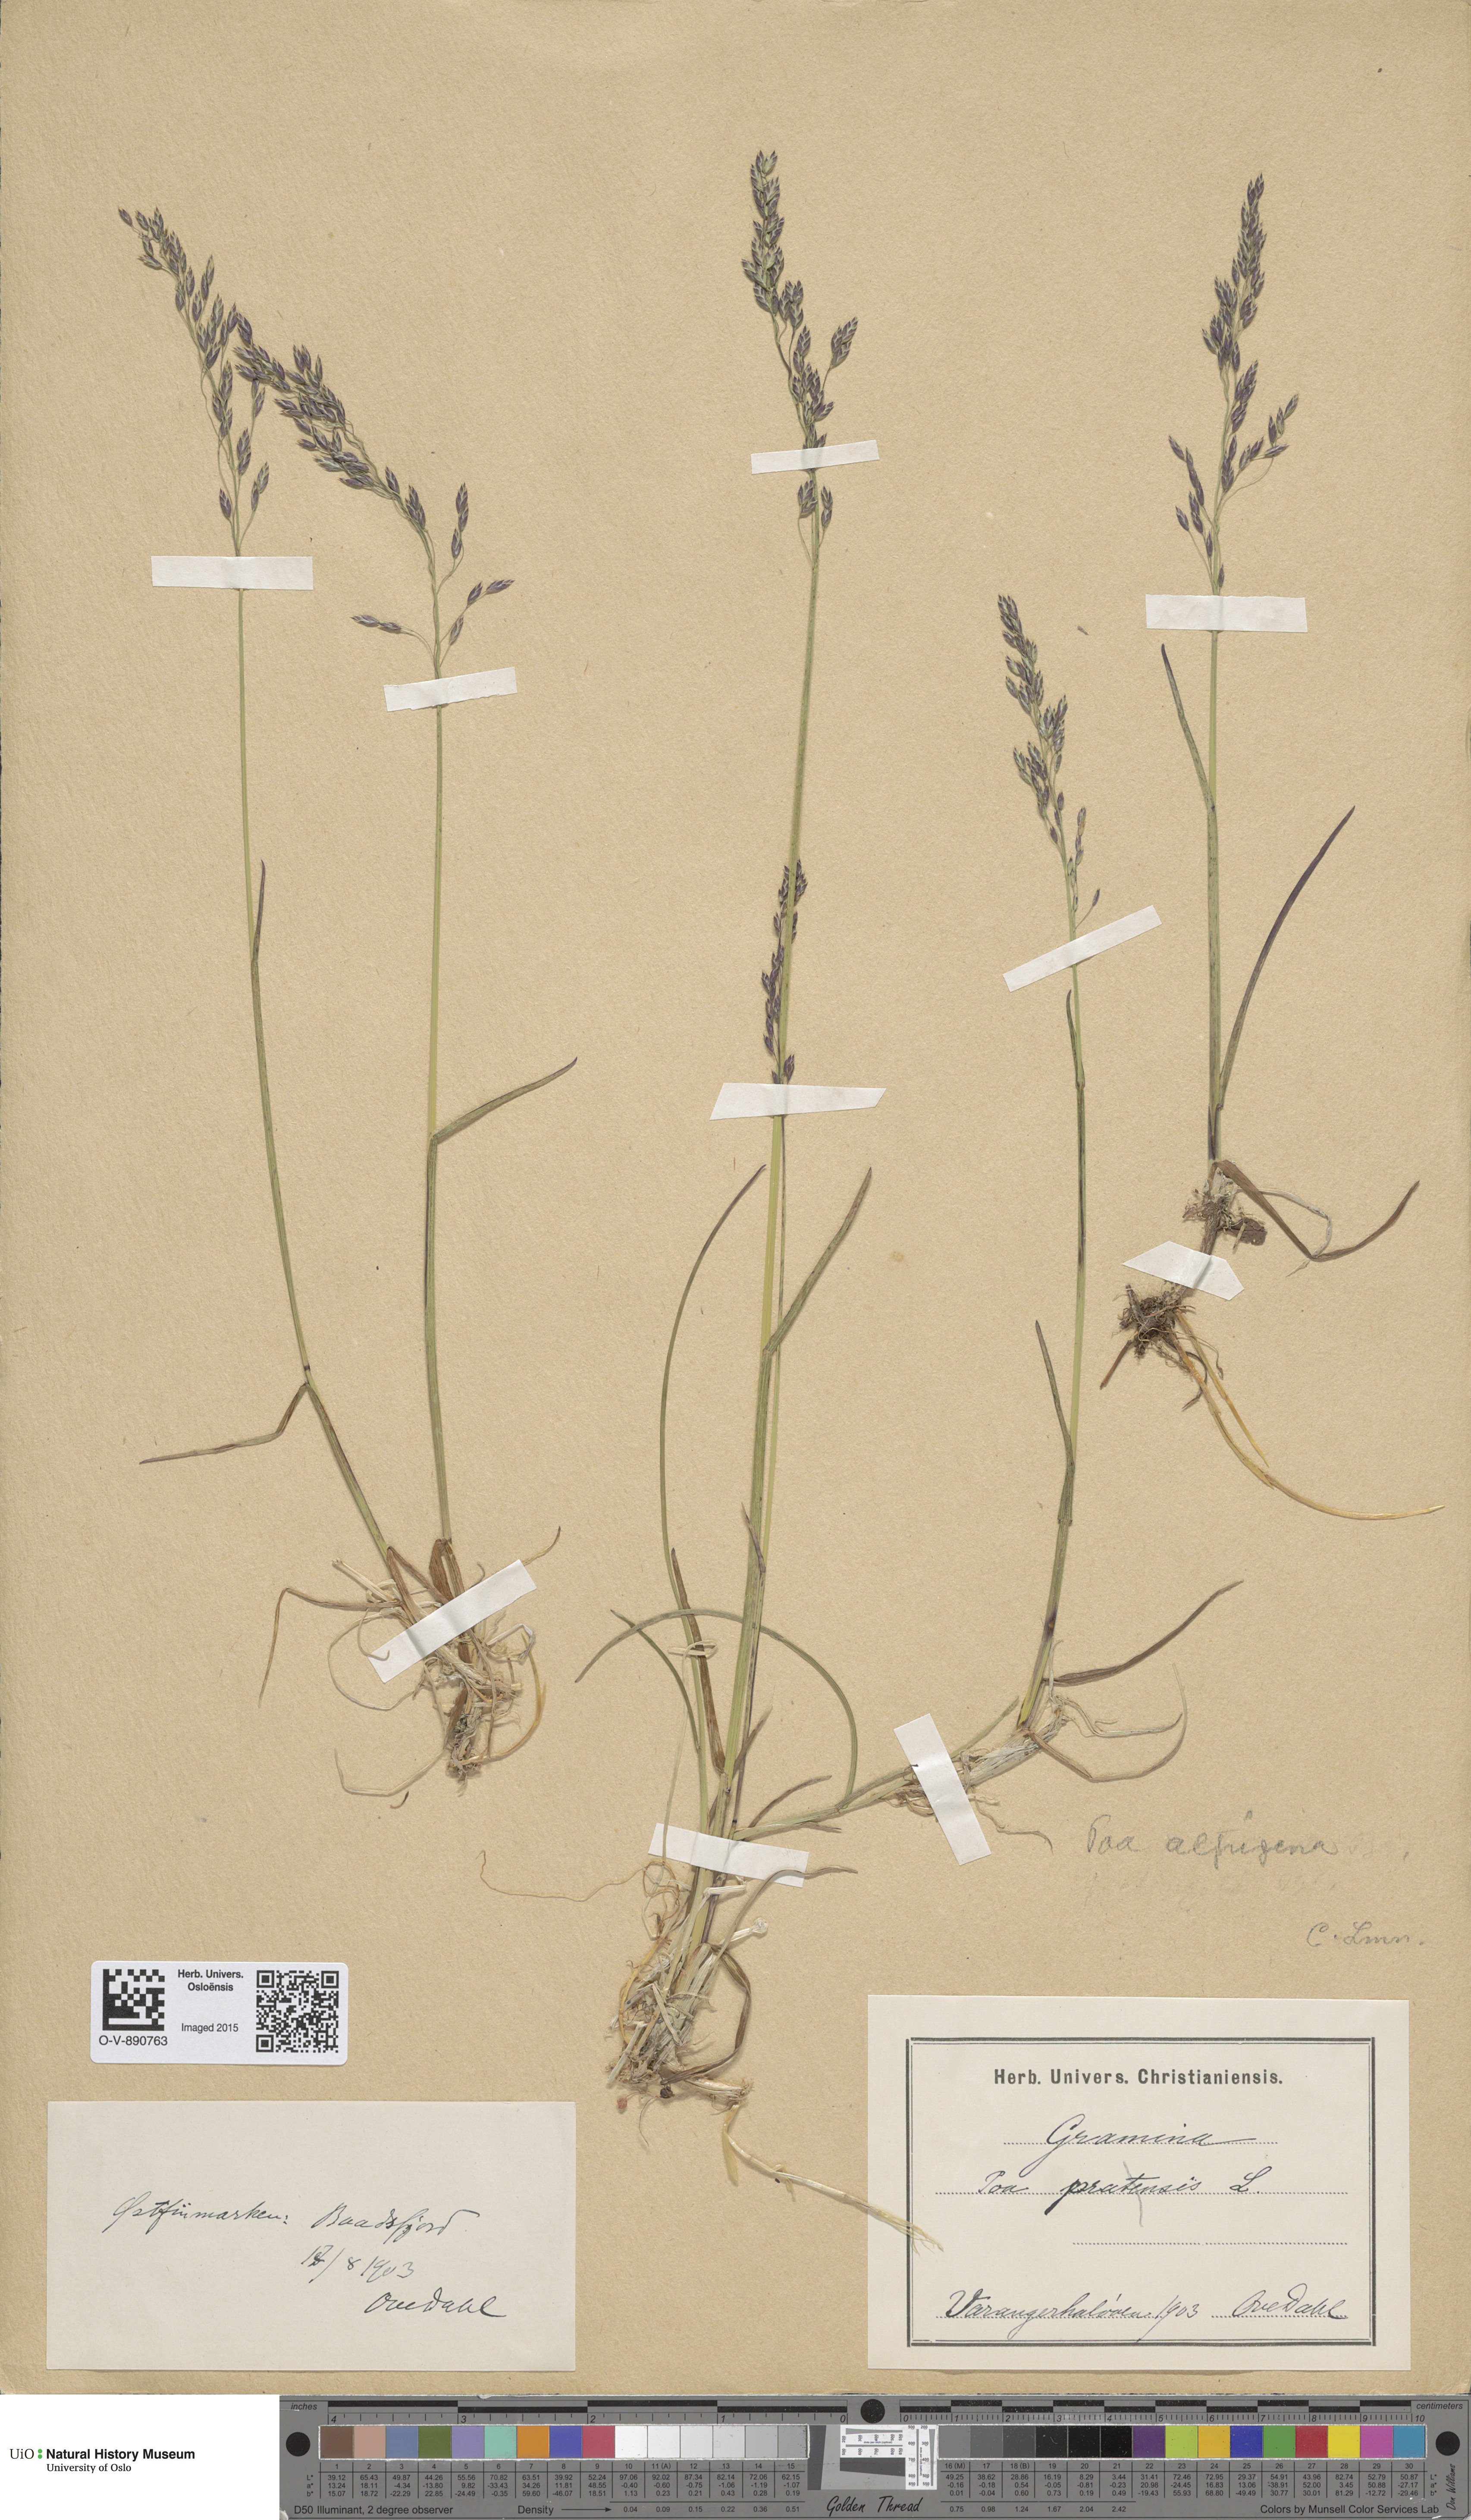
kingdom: Plantae
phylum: Tracheophyta
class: Liliopsida
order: Poales
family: Poaceae
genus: Poa
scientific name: Poa alpigena
